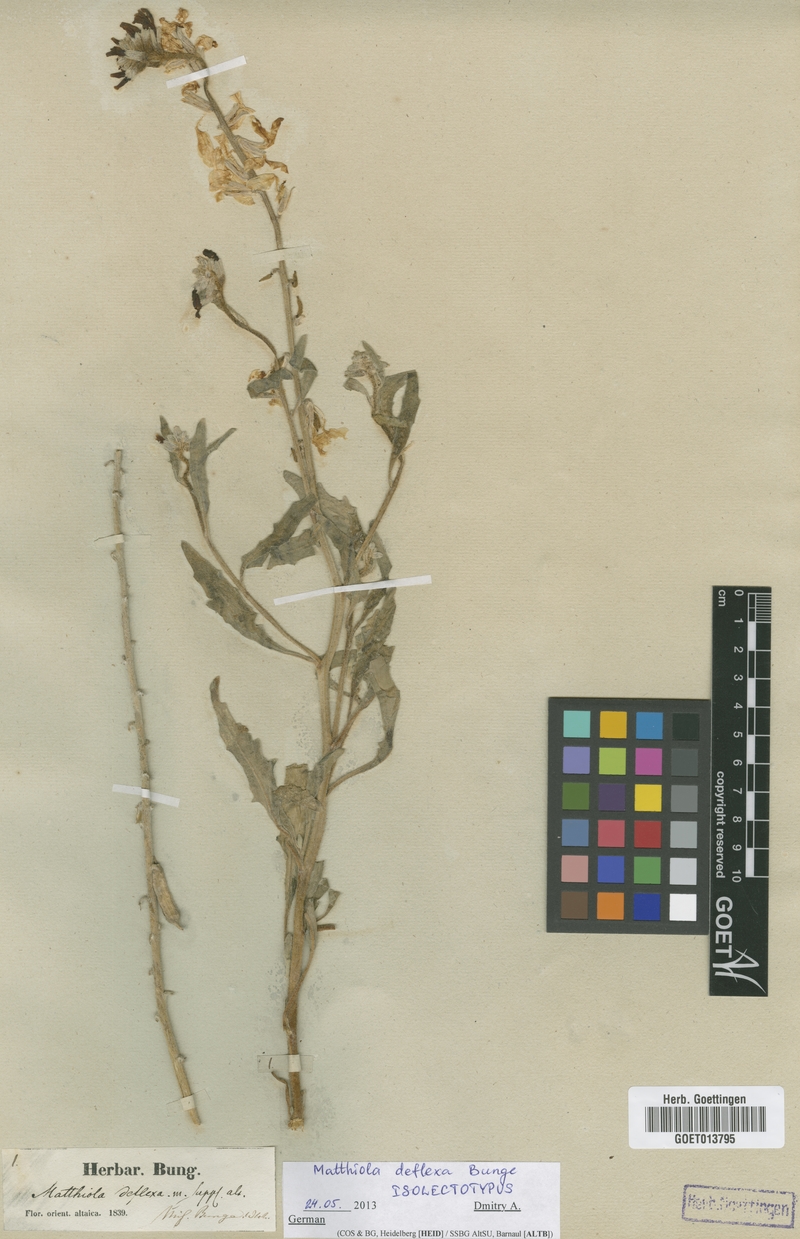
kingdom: Plantae
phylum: Tracheophyta
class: Magnoliopsida
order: Brassicales
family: Brassicaceae
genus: Microstigma
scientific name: Microstigma deflexum
